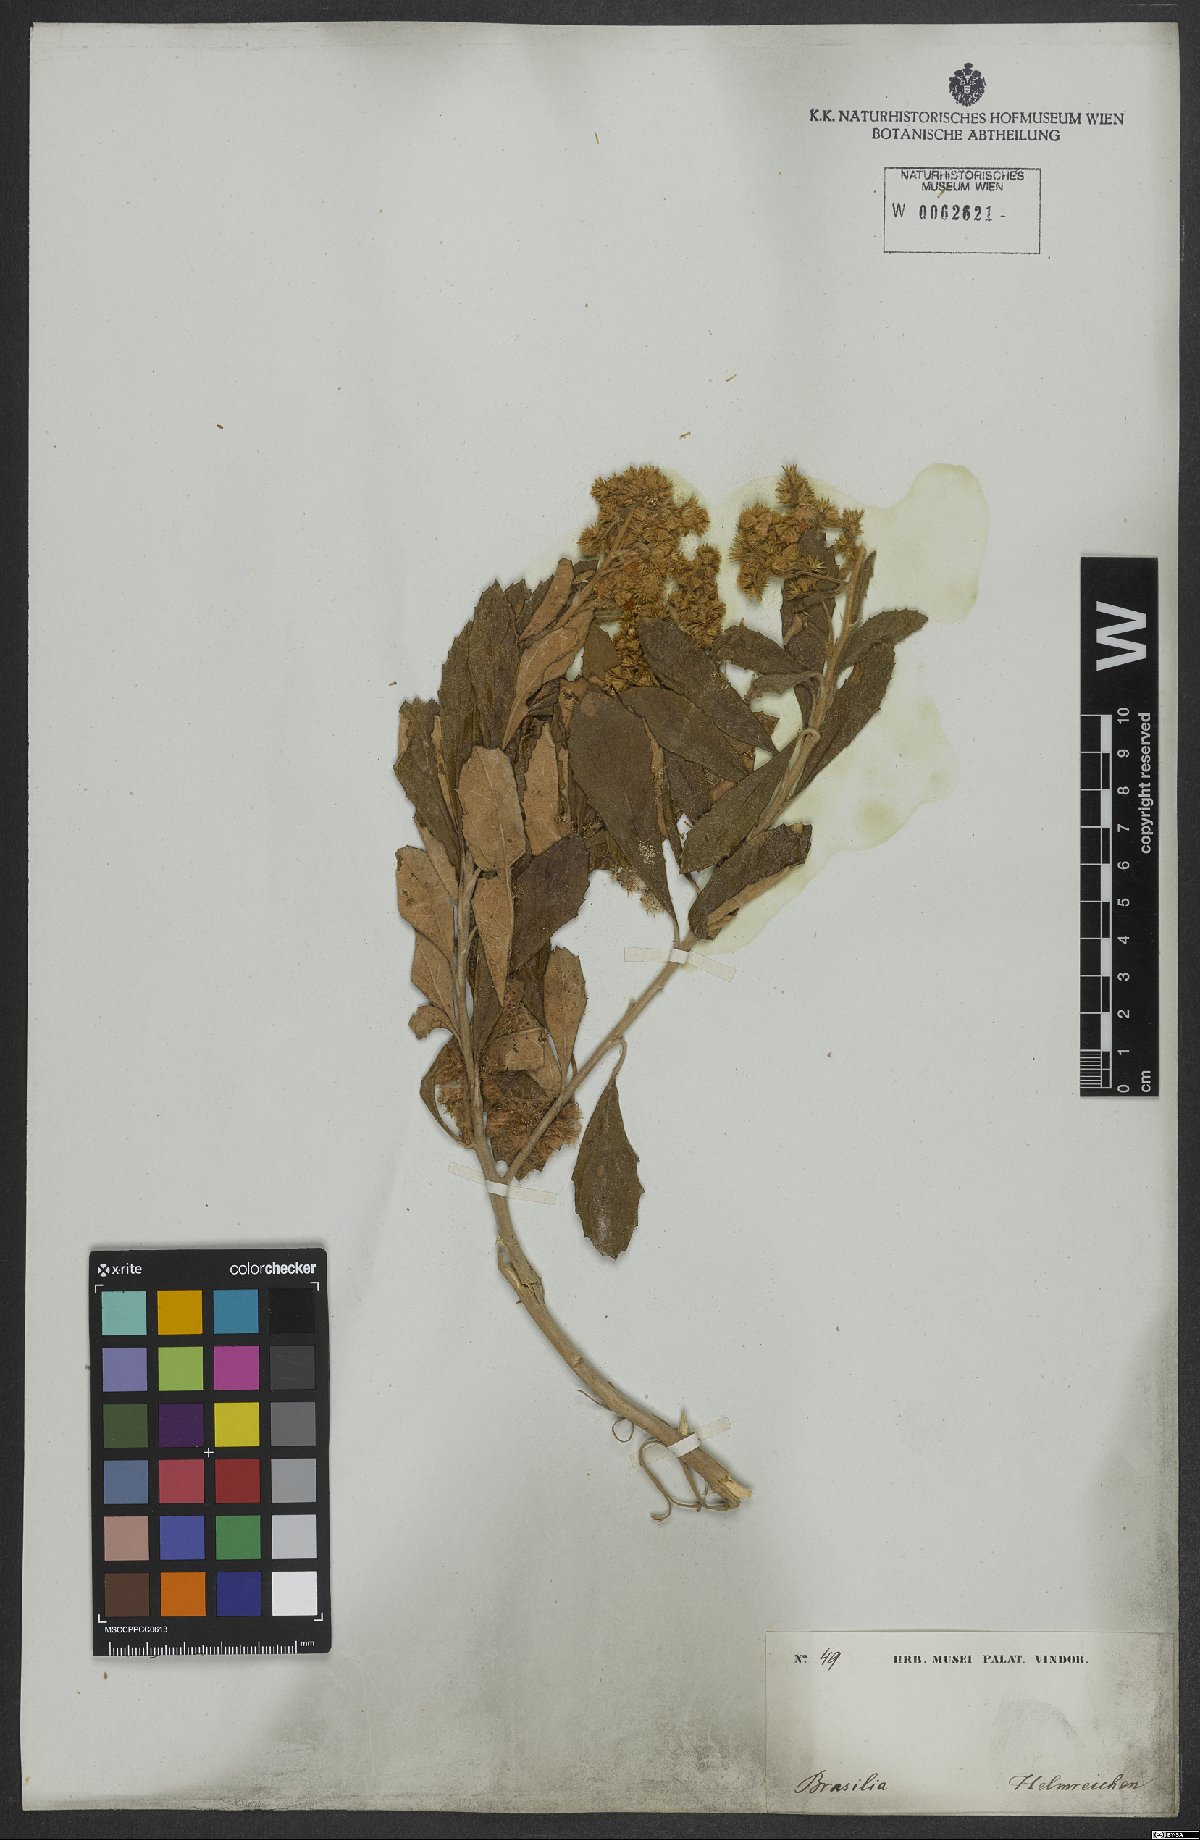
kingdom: Plantae
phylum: Tracheophyta
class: Magnoliopsida
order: Asterales
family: Asteraceae
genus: Baccharis
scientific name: Baccharis tarchonanthoides
